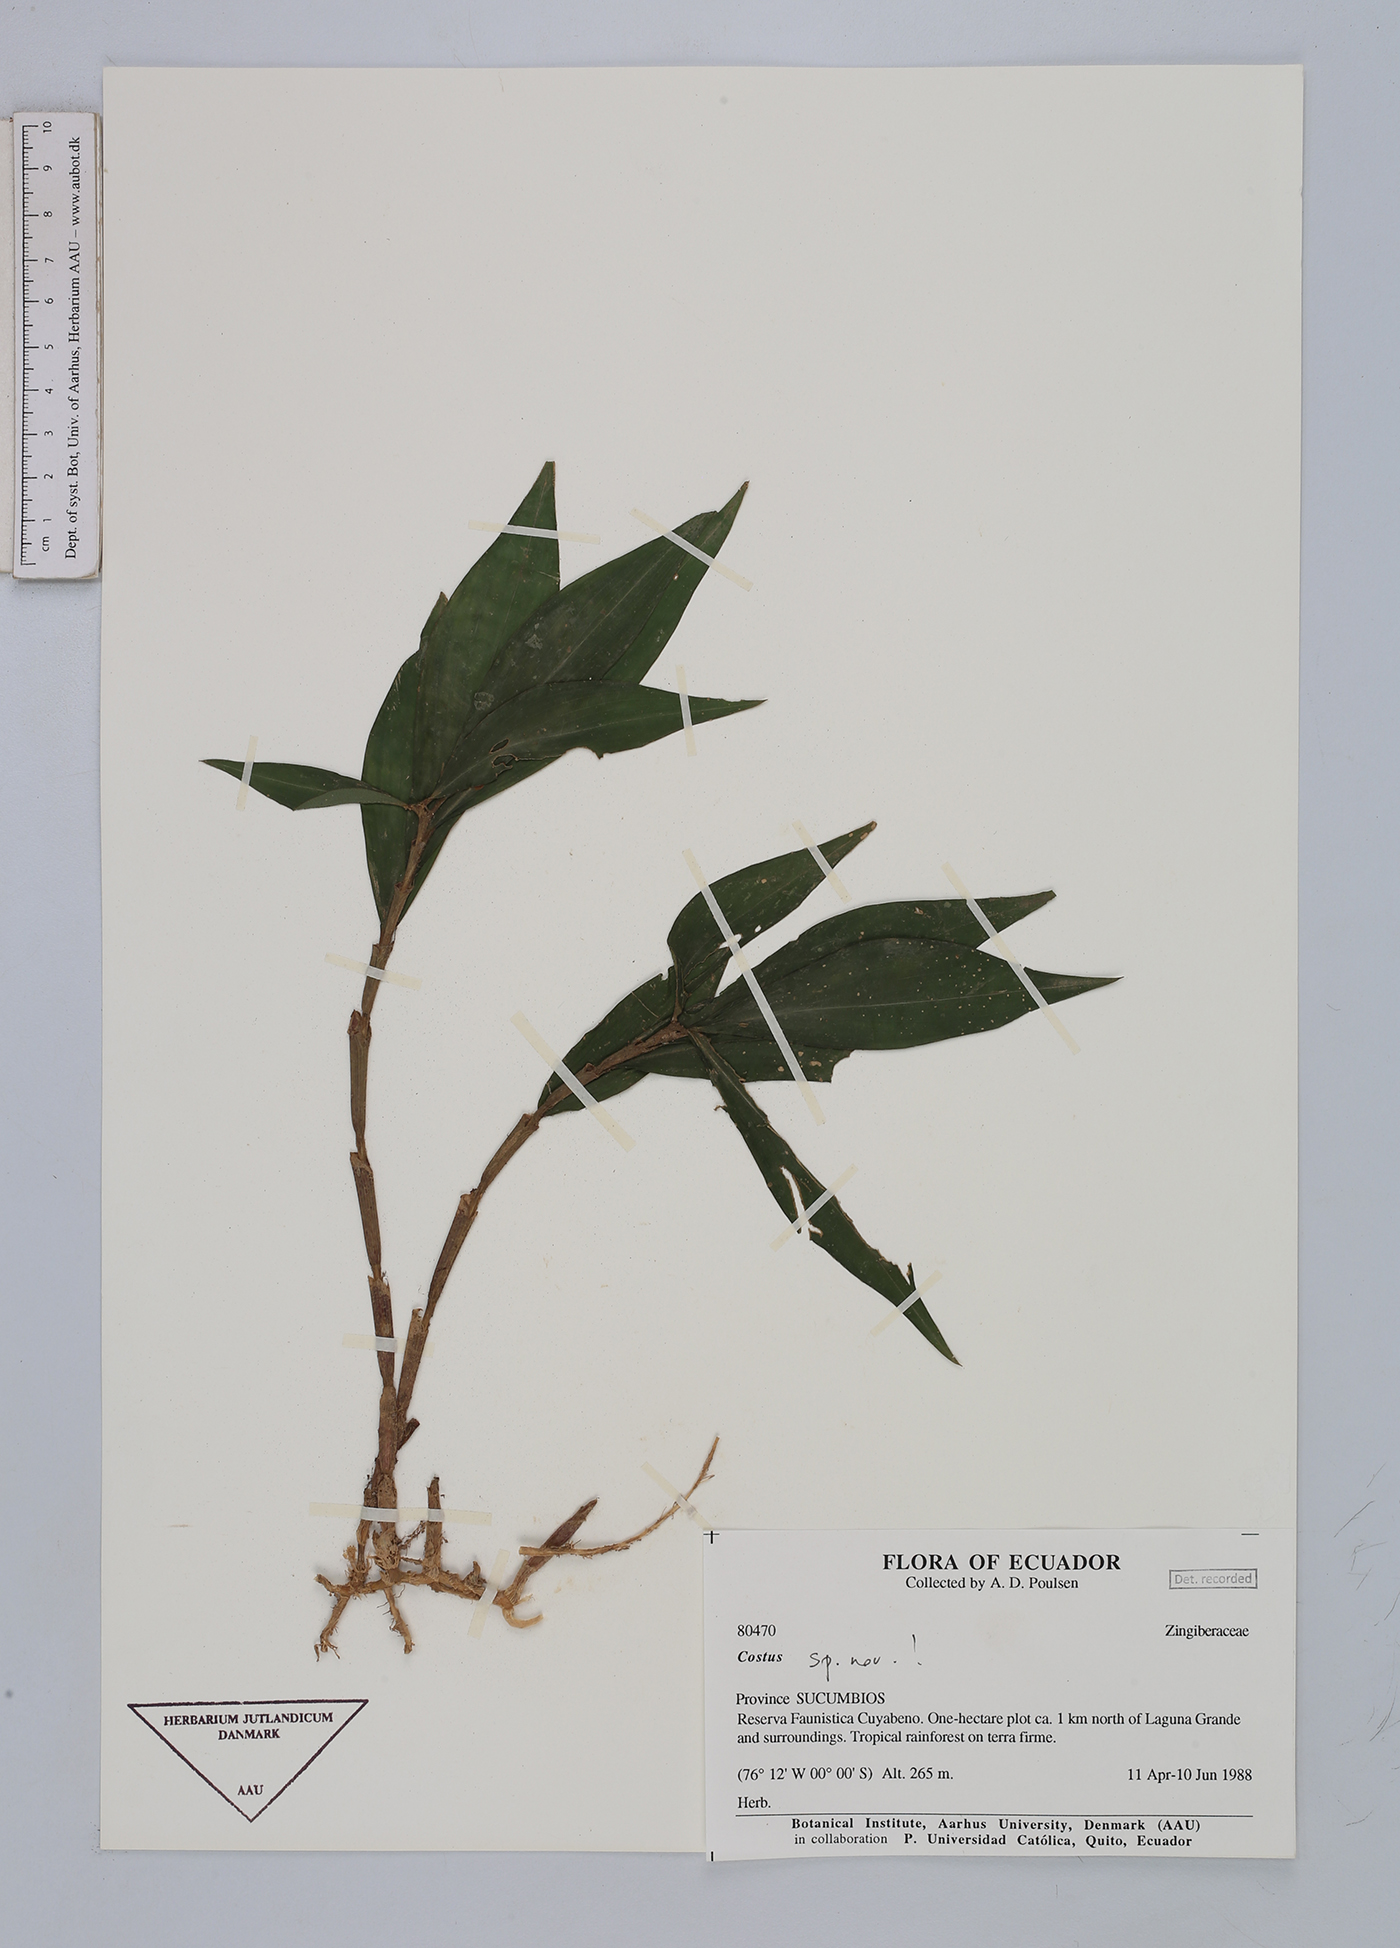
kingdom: Plantae
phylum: Tracheophyta
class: Liliopsida
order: Zingiberales
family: Costaceae
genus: Costus
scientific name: Costus
